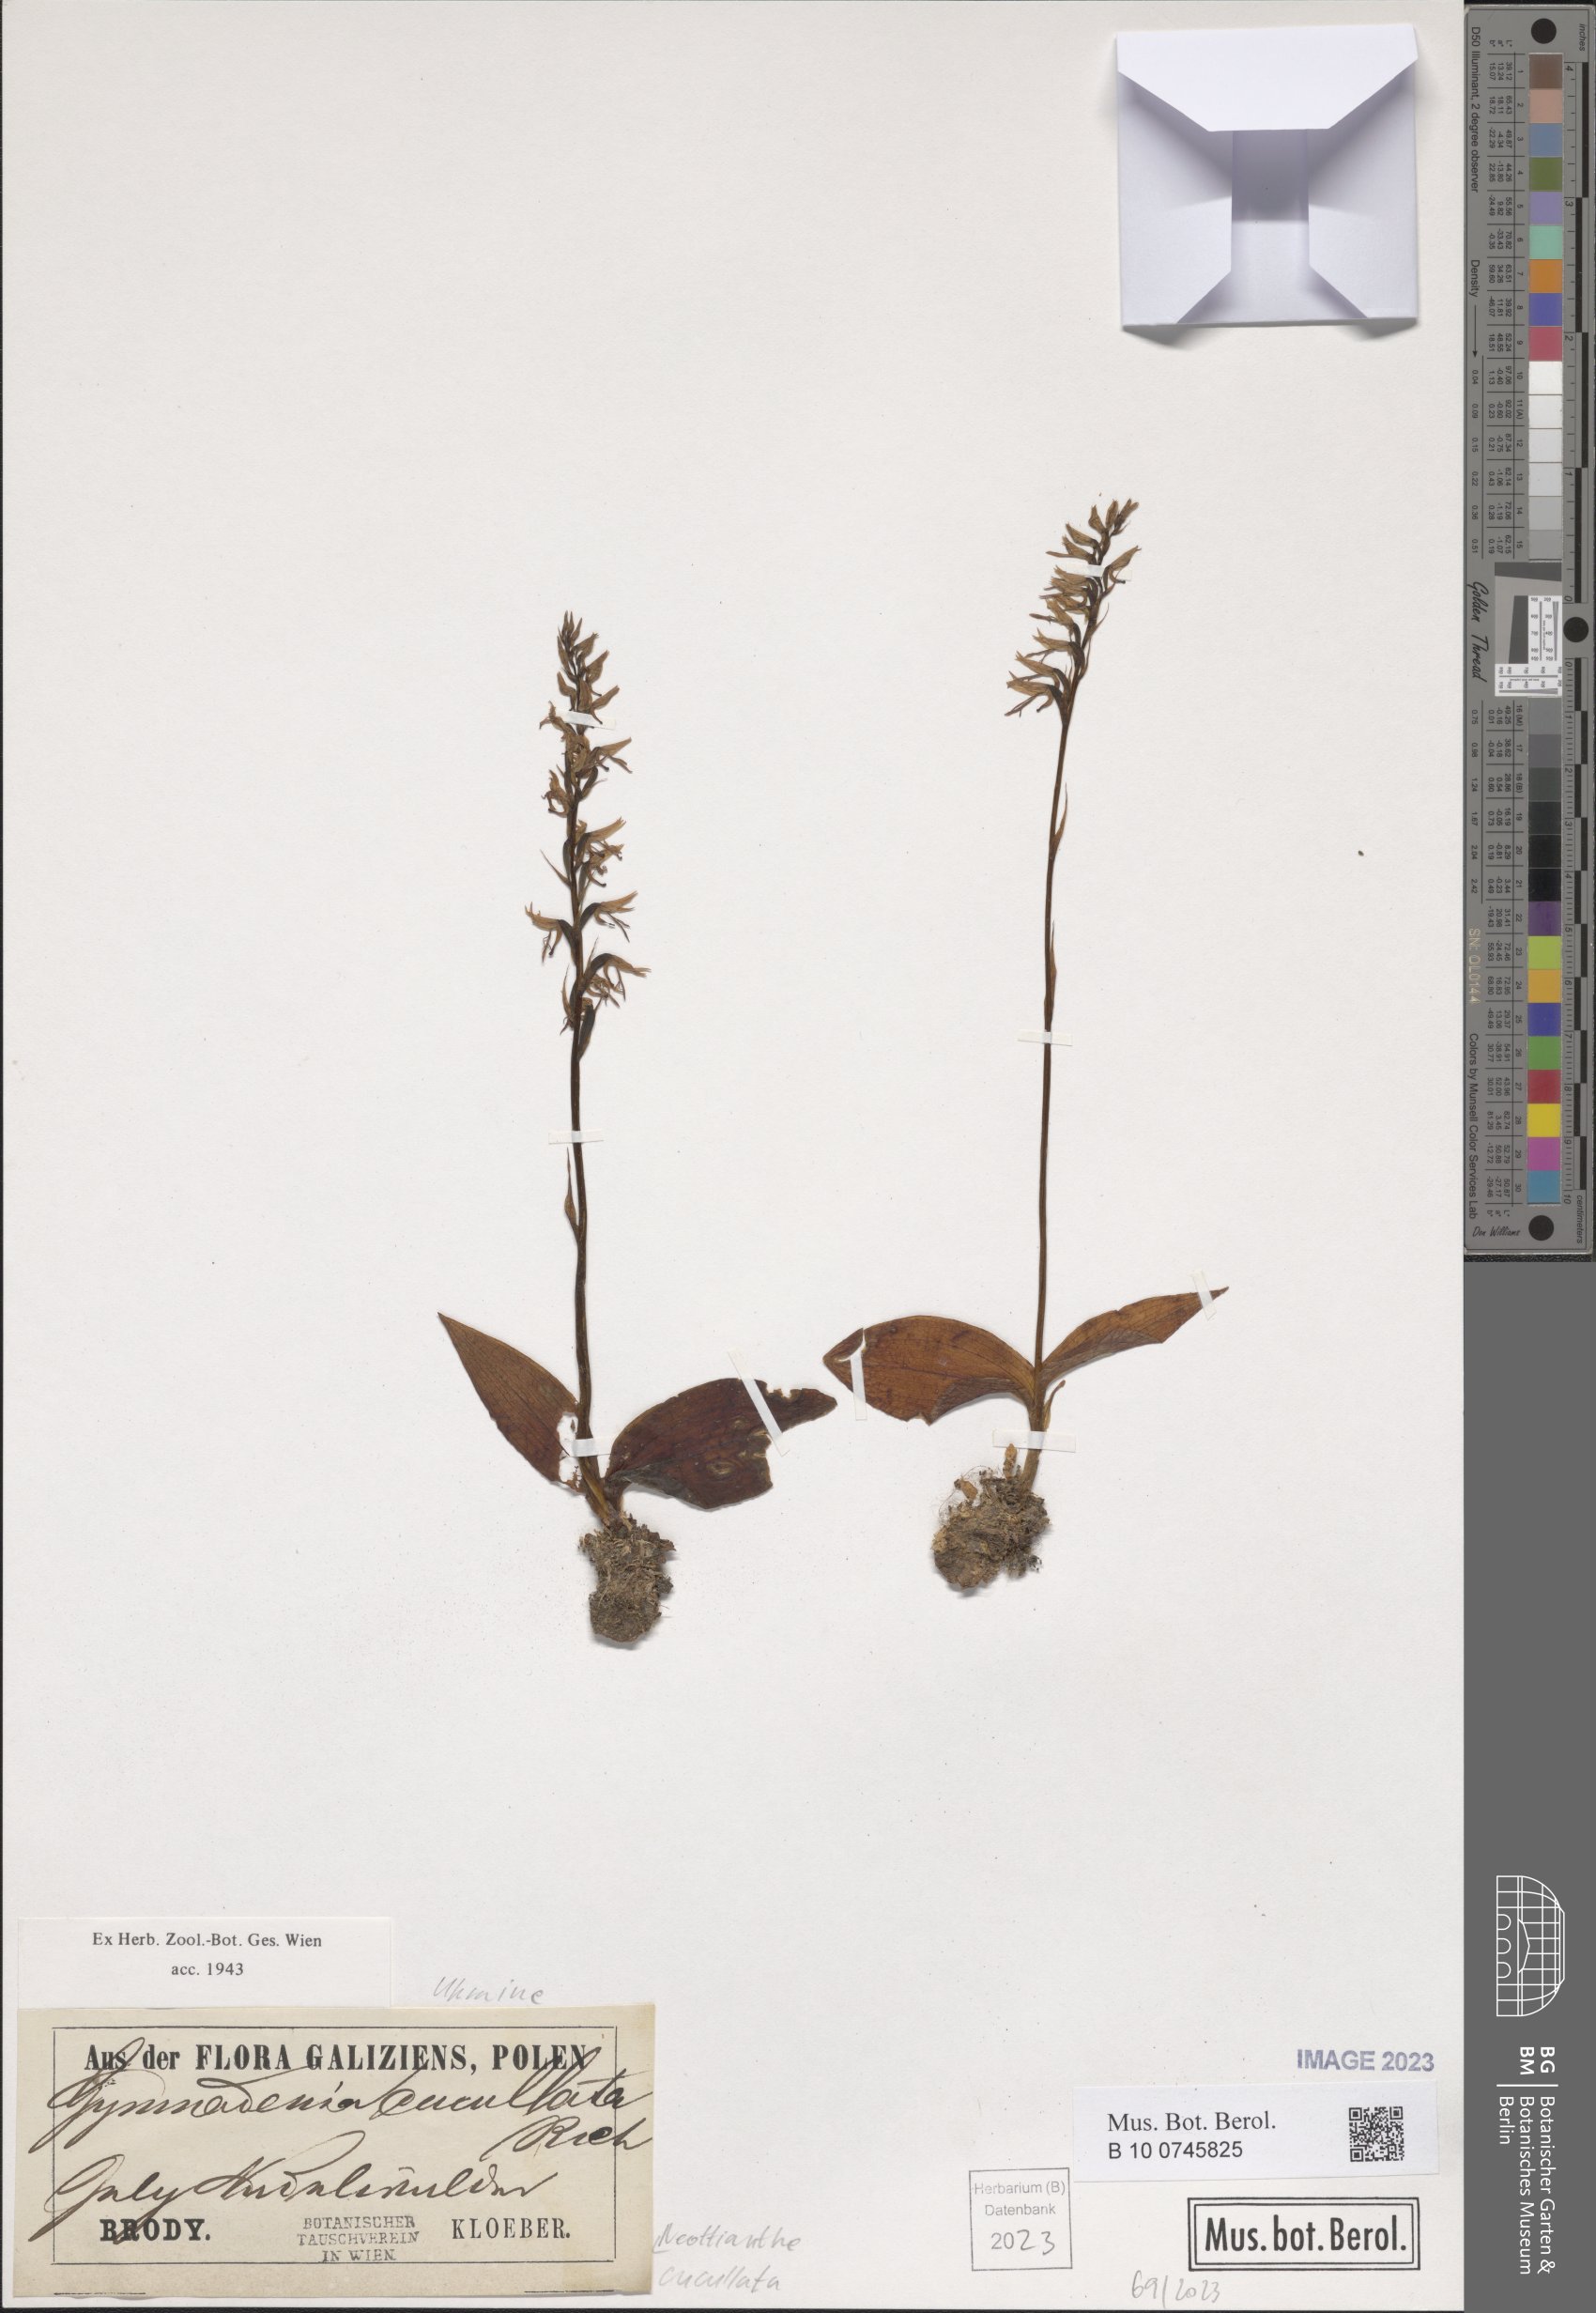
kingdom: Plantae
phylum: Tracheophyta
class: Liliopsida
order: Asparagales
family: Orchidaceae
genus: Hemipilia
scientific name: Hemipilia cucullata
